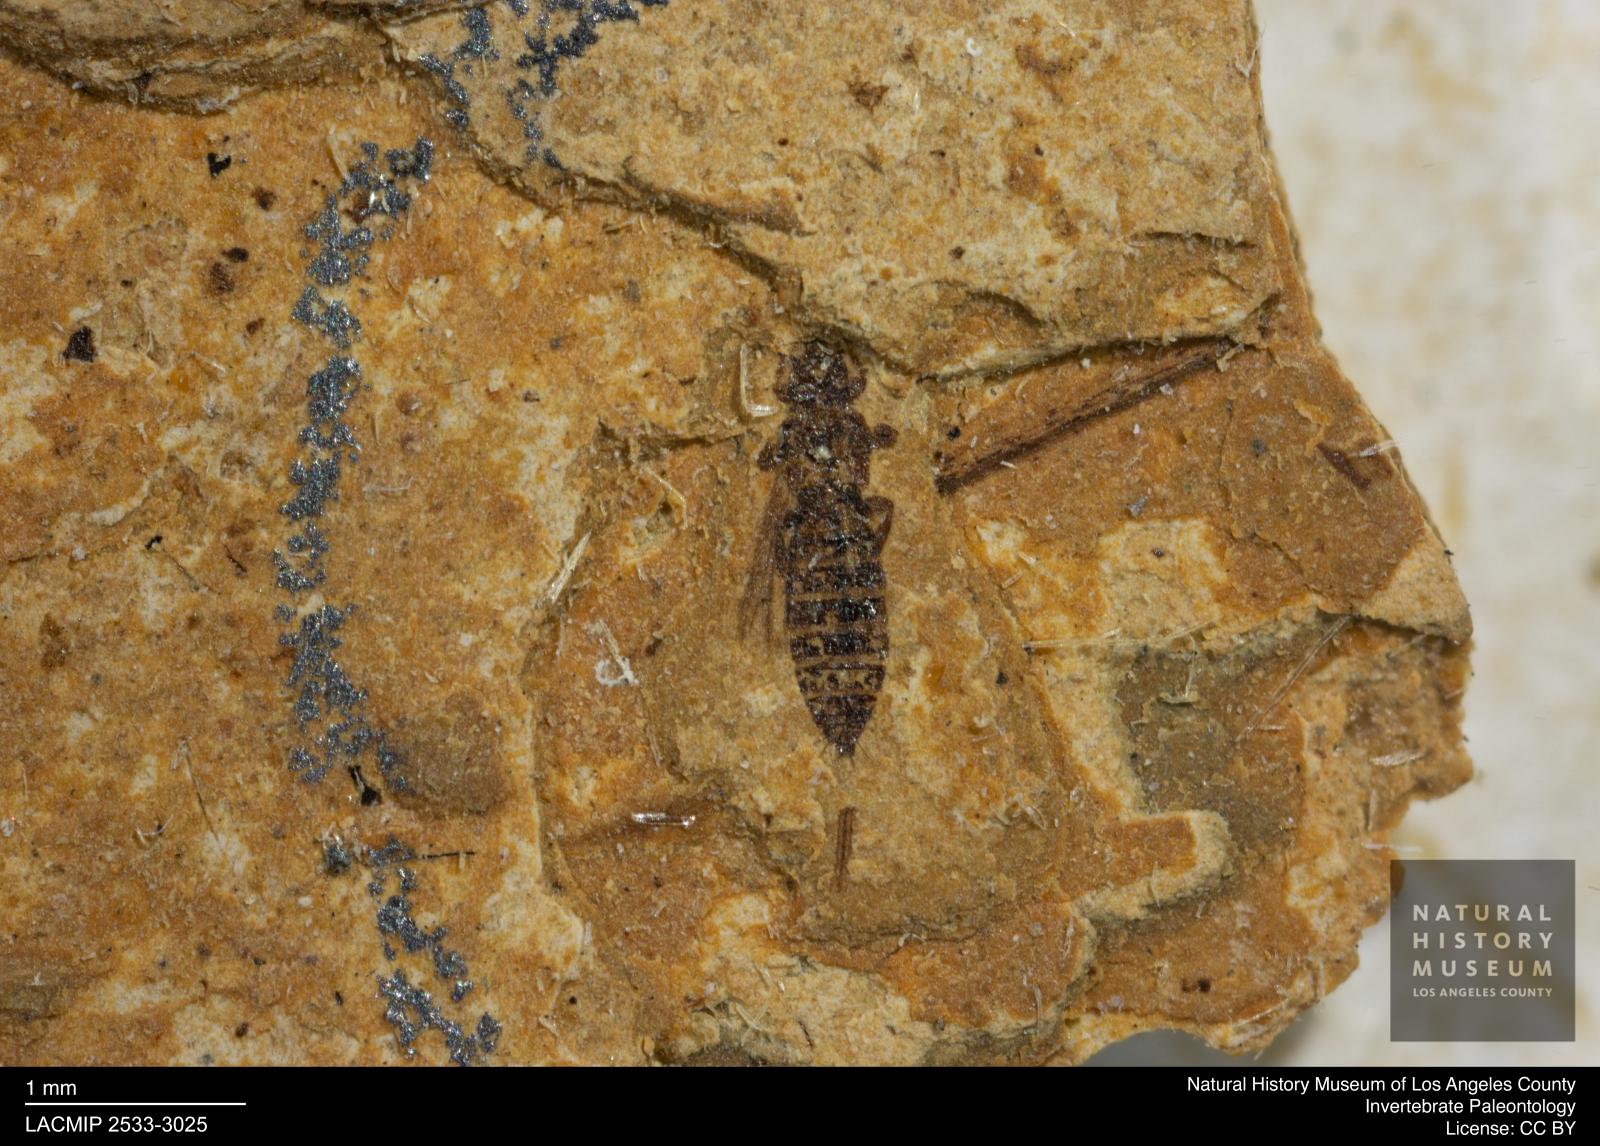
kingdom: Animalia
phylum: Arthropoda
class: Insecta
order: Thysanoptera
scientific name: Thysanoptera
